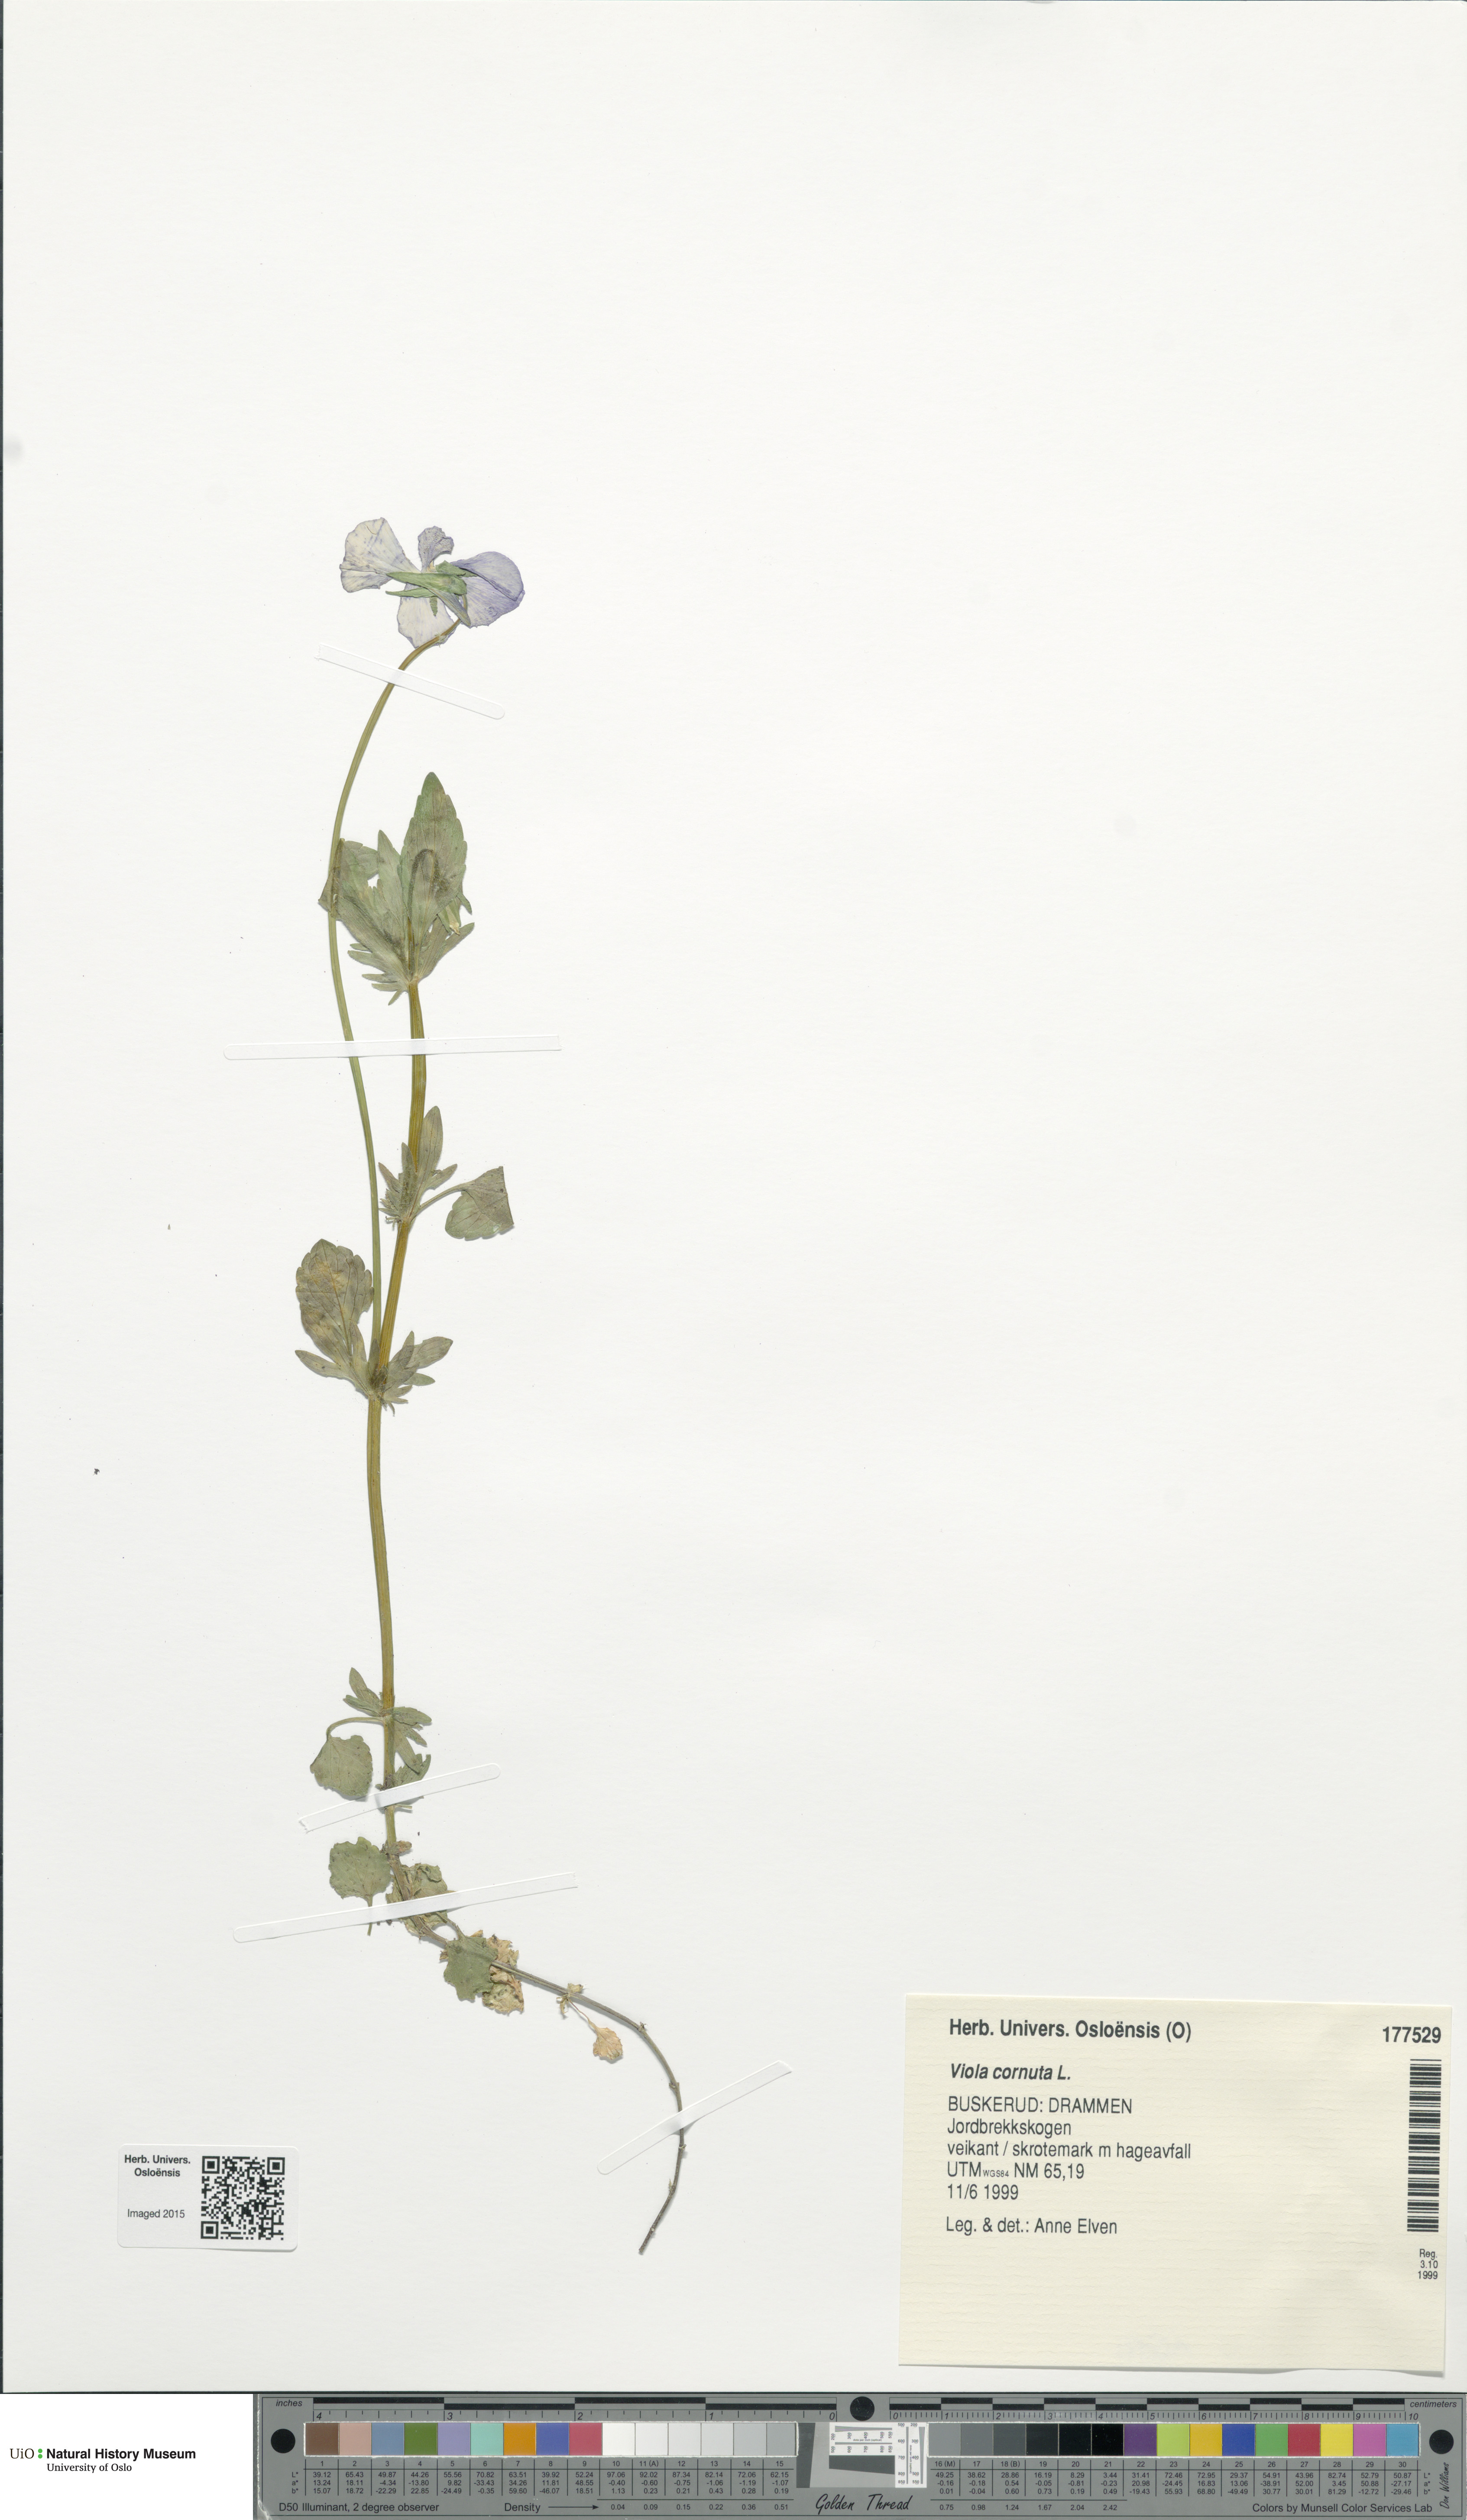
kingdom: Plantae
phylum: Tracheophyta
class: Magnoliopsida
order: Malpighiales
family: Violaceae
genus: Viola
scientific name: Viola
